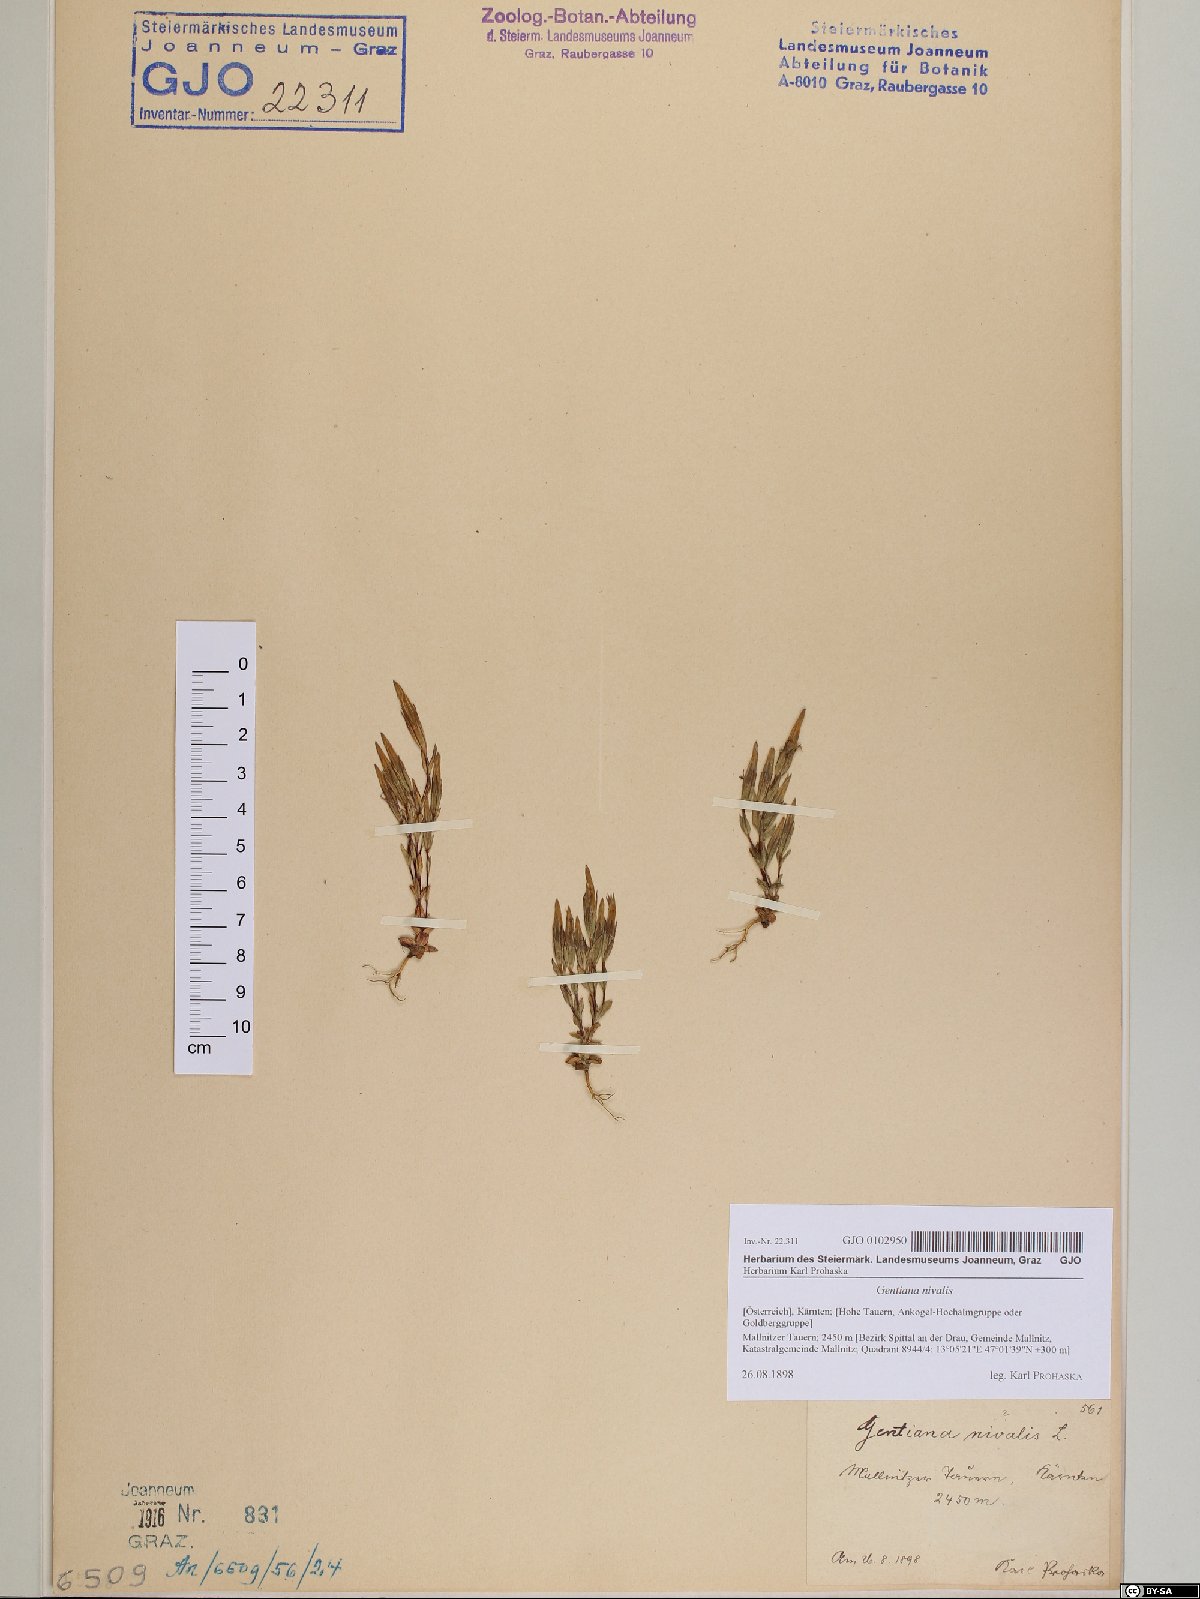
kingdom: Plantae
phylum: Tracheophyta
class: Magnoliopsida
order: Gentianales
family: Gentianaceae
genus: Gentiana
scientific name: Gentiana nivalis
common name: Alpine gentian
